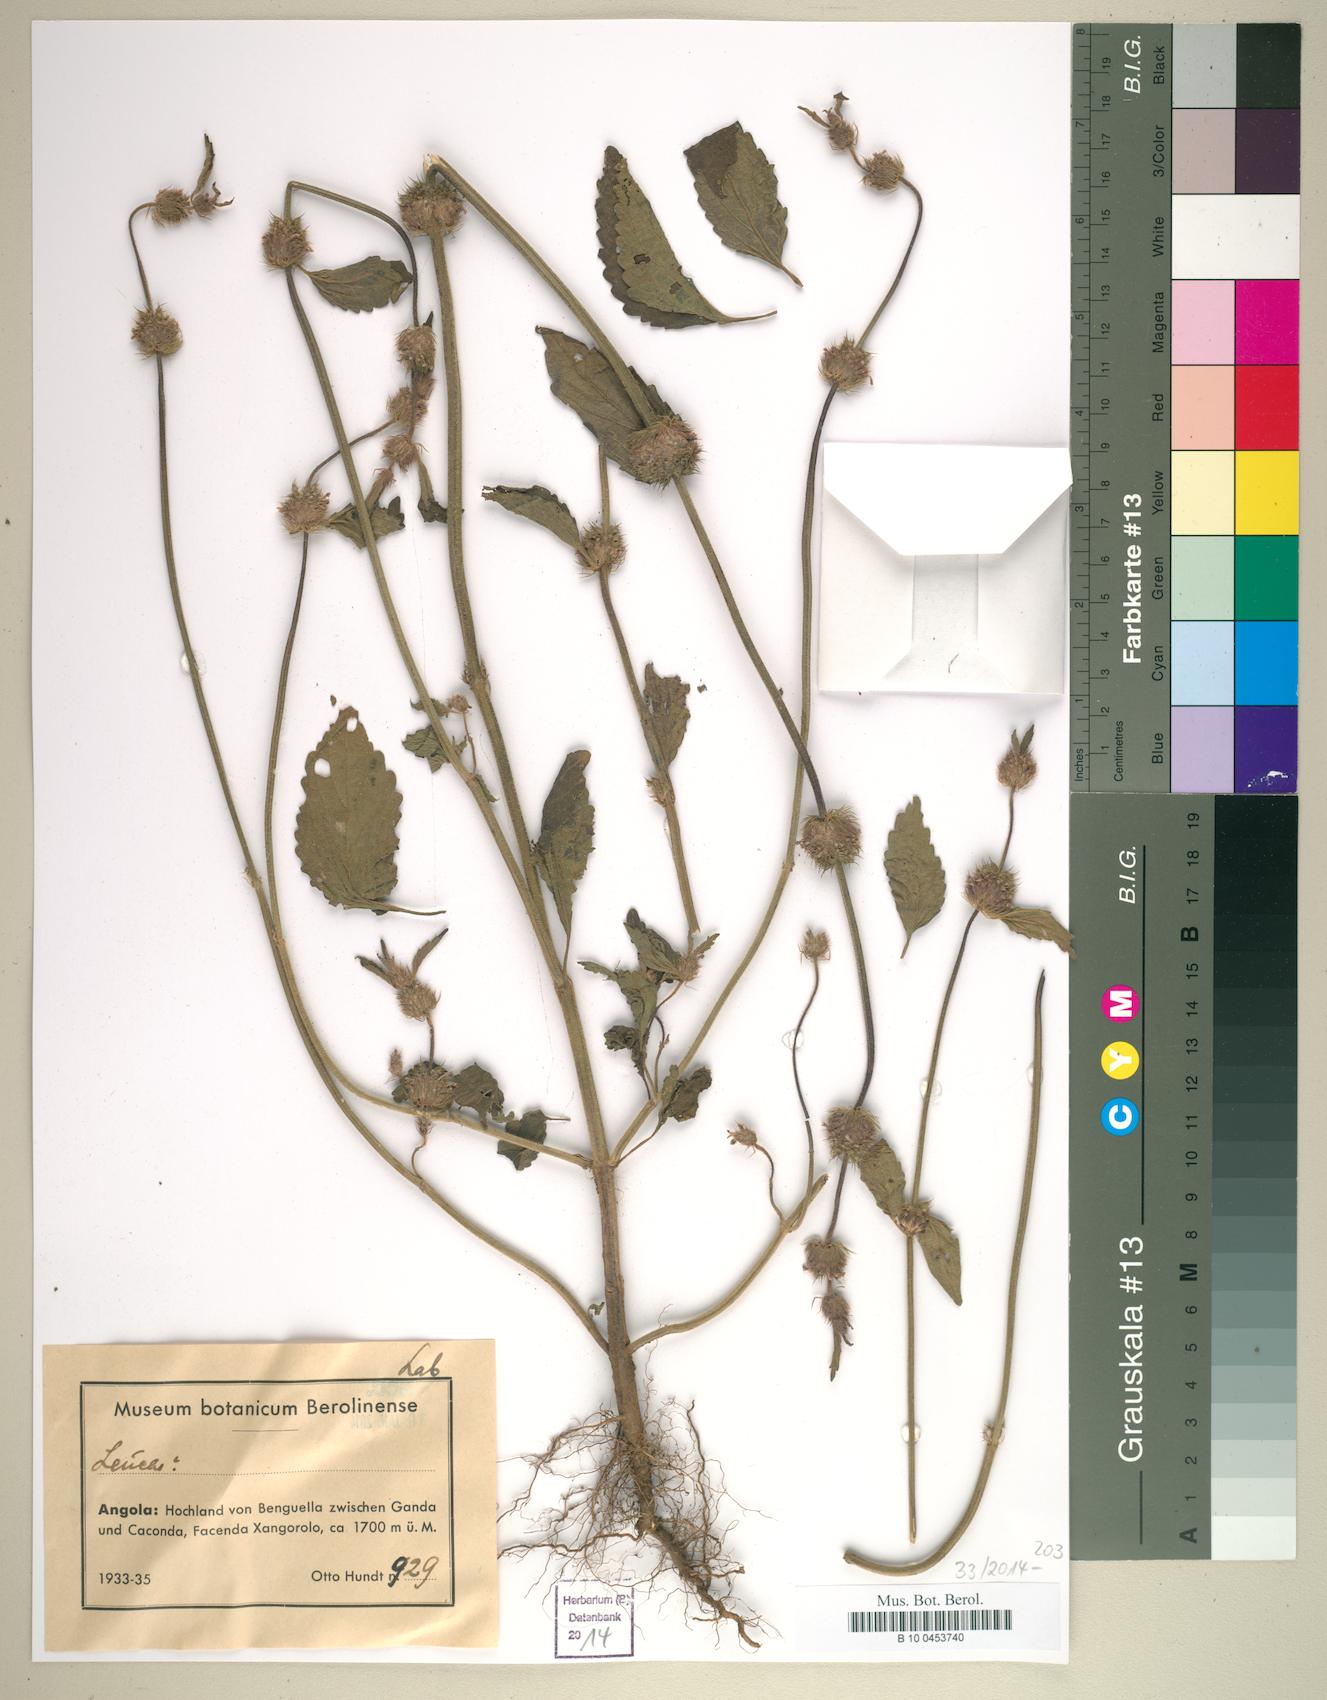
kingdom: Plantae
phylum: Tracheophyta
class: Magnoliopsida
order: Lamiales
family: Lamiaceae
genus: Leucas
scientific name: Leucas
